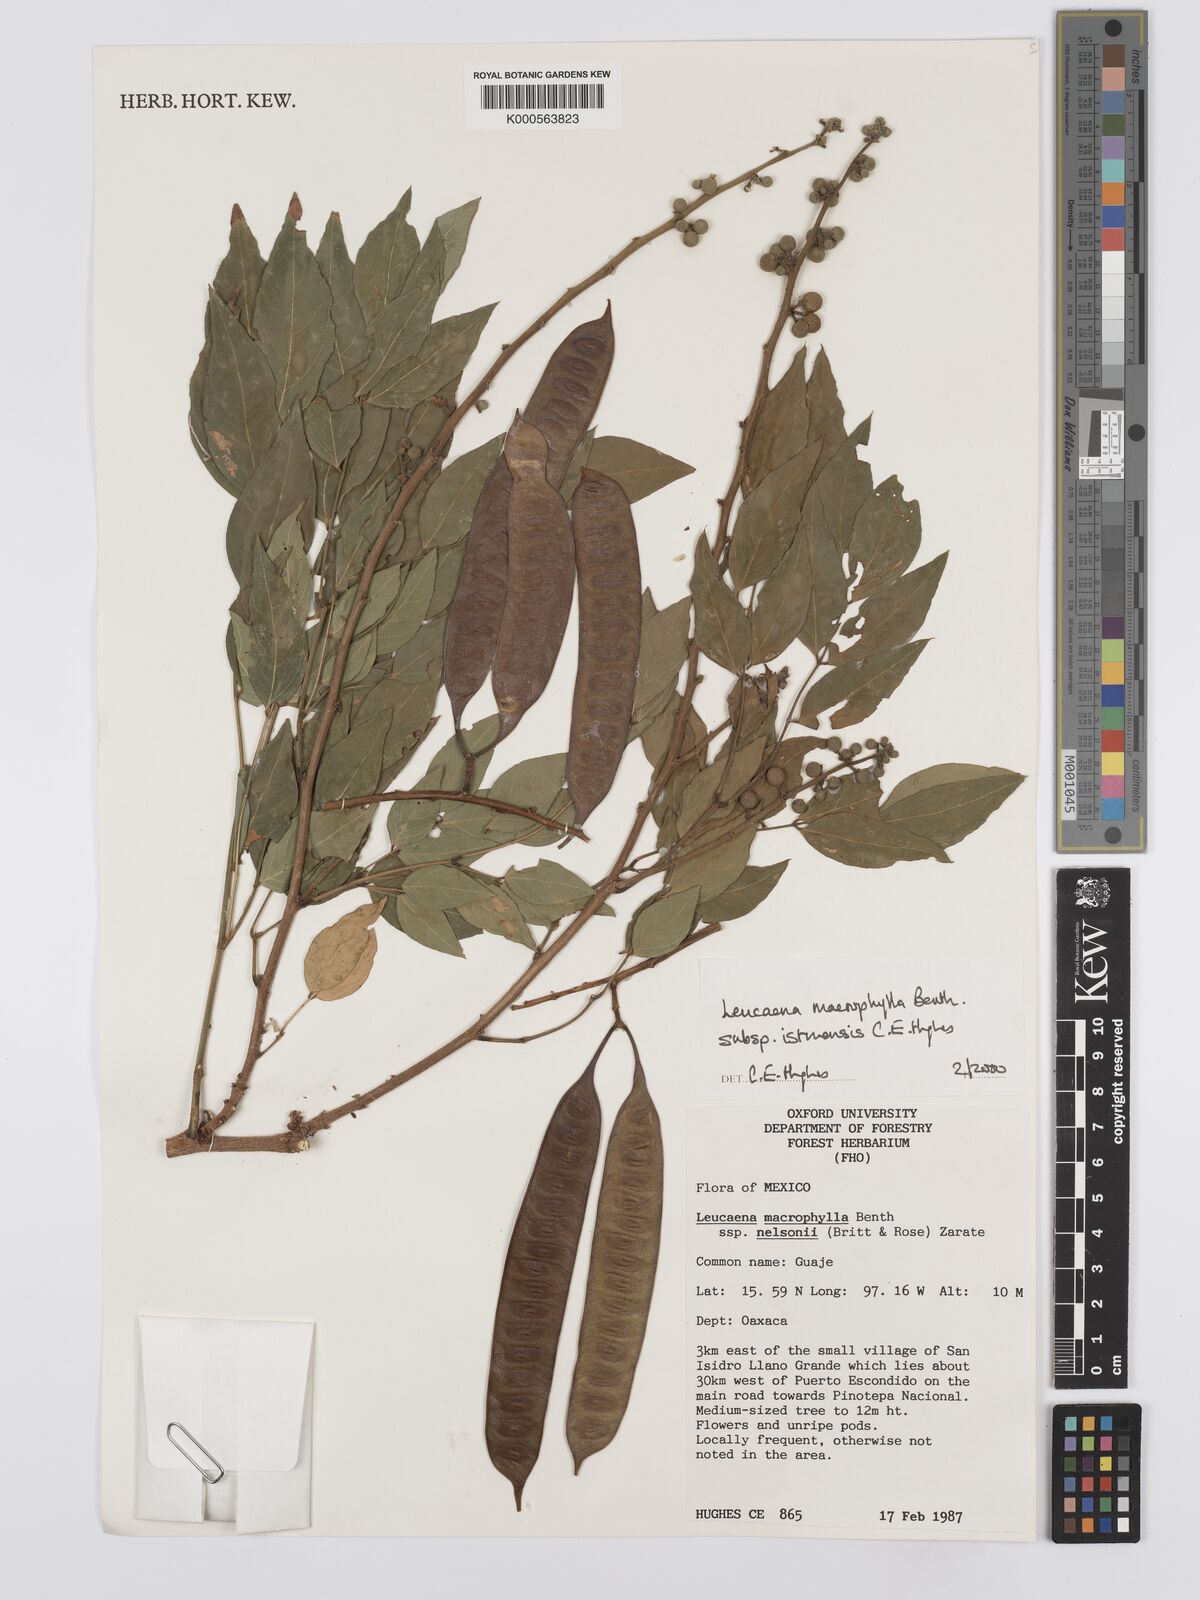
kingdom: Plantae
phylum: Tracheophyta
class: Magnoliopsida
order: Fabales
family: Fabaceae
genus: Leucaena
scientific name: Leucaena macrophylla
